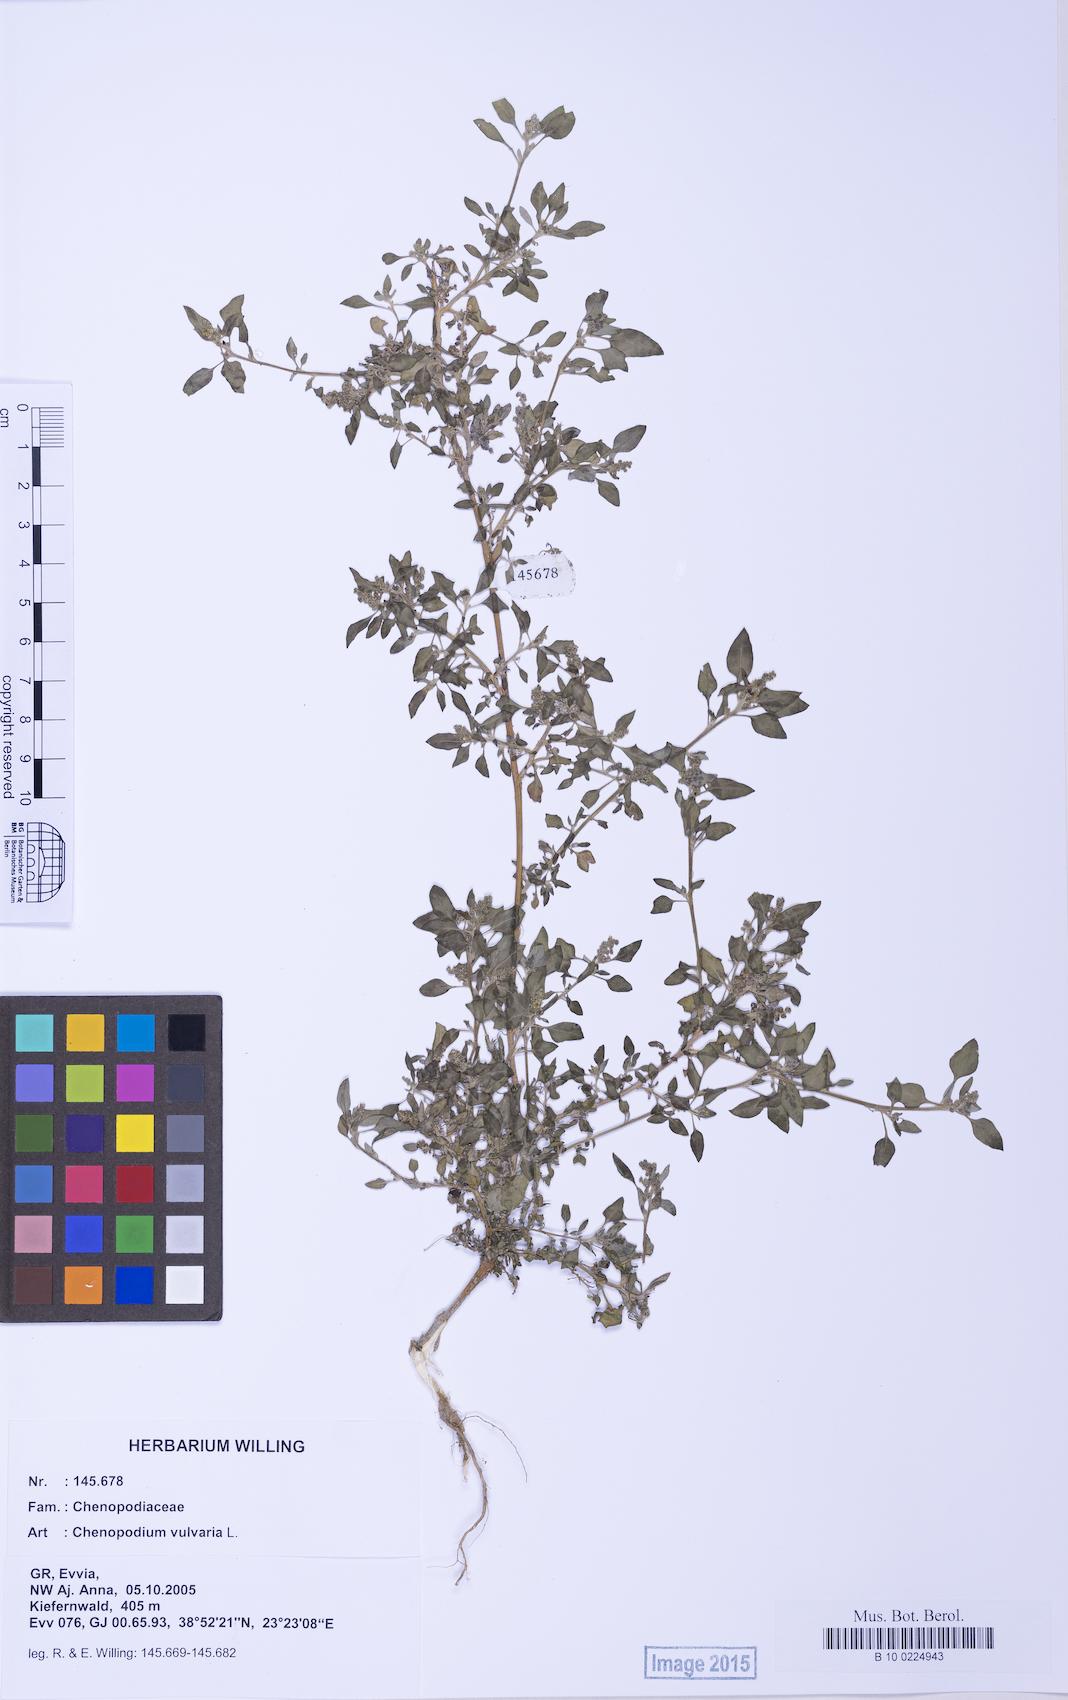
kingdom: Plantae
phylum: Tracheophyta
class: Magnoliopsida
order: Caryophyllales
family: Amaranthaceae
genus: Chenopodium
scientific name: Chenopodium vulvaria
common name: Stinking goosefoot
